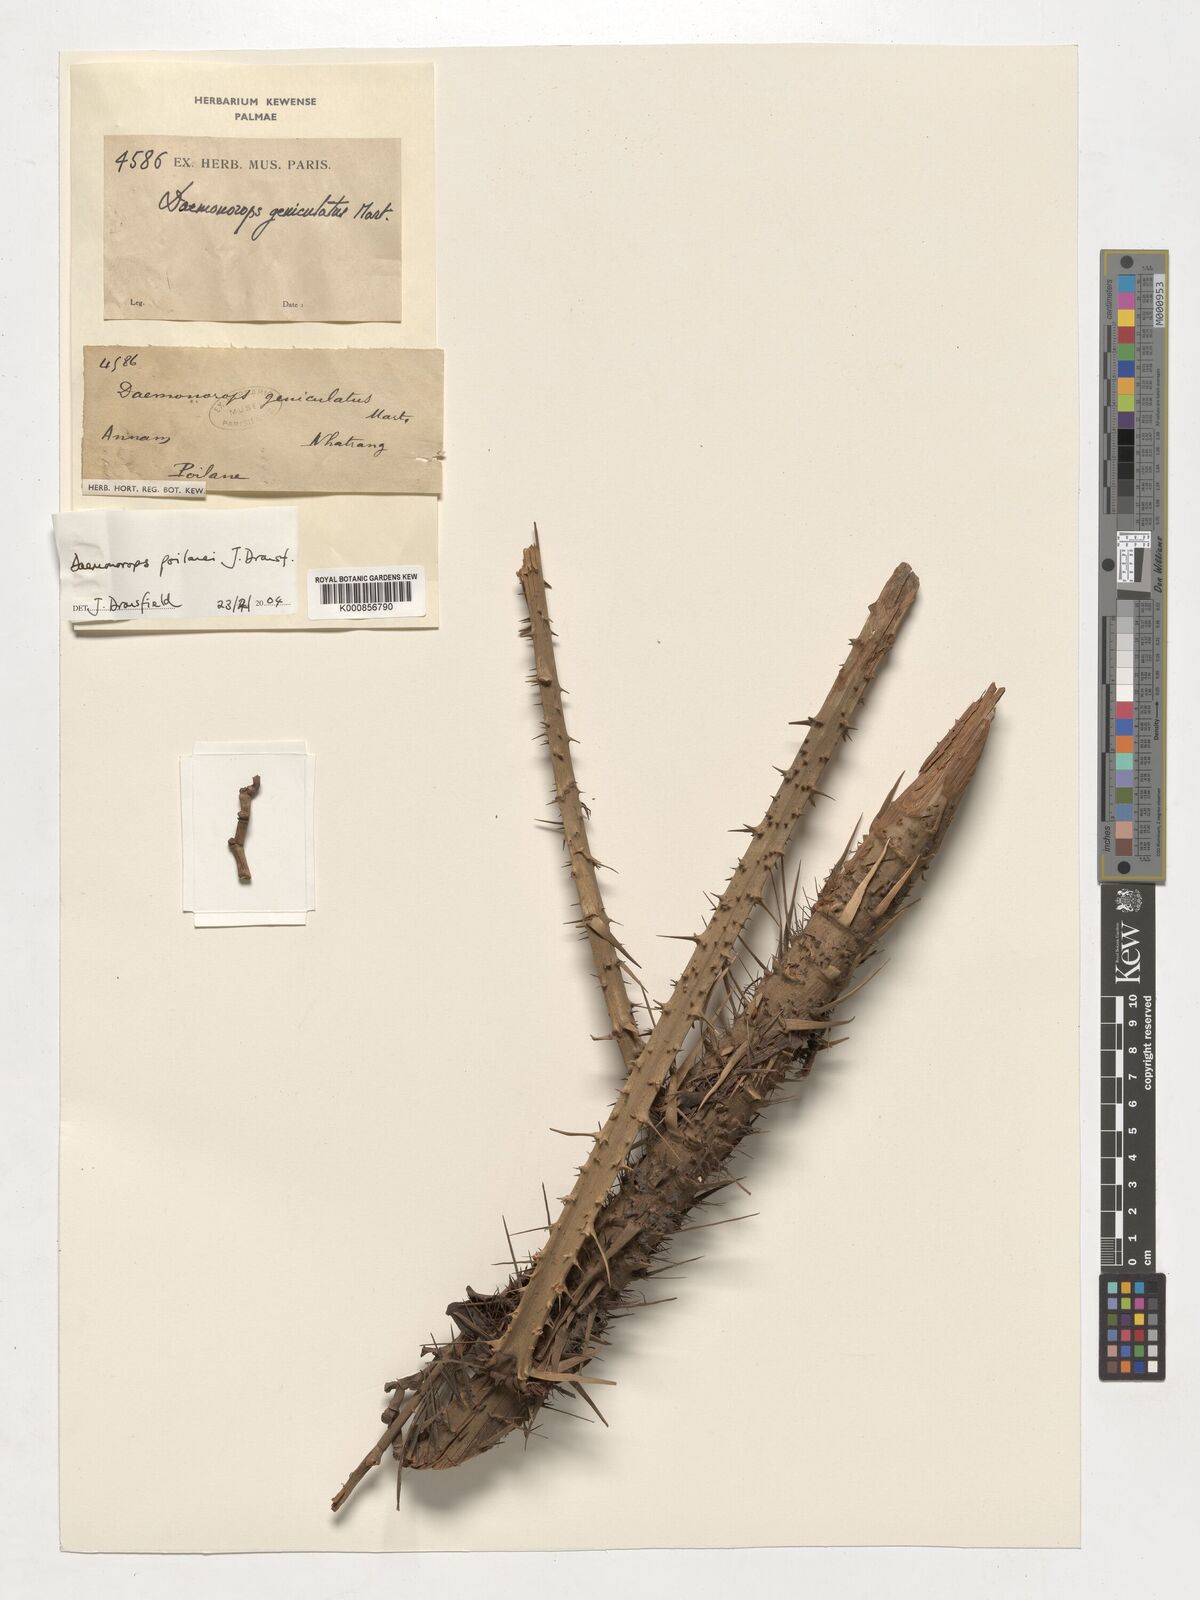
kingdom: Plantae
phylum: Tracheophyta
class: Liliopsida
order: Arecales
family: Arecaceae
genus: Calamus
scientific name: Calamus eugenei
